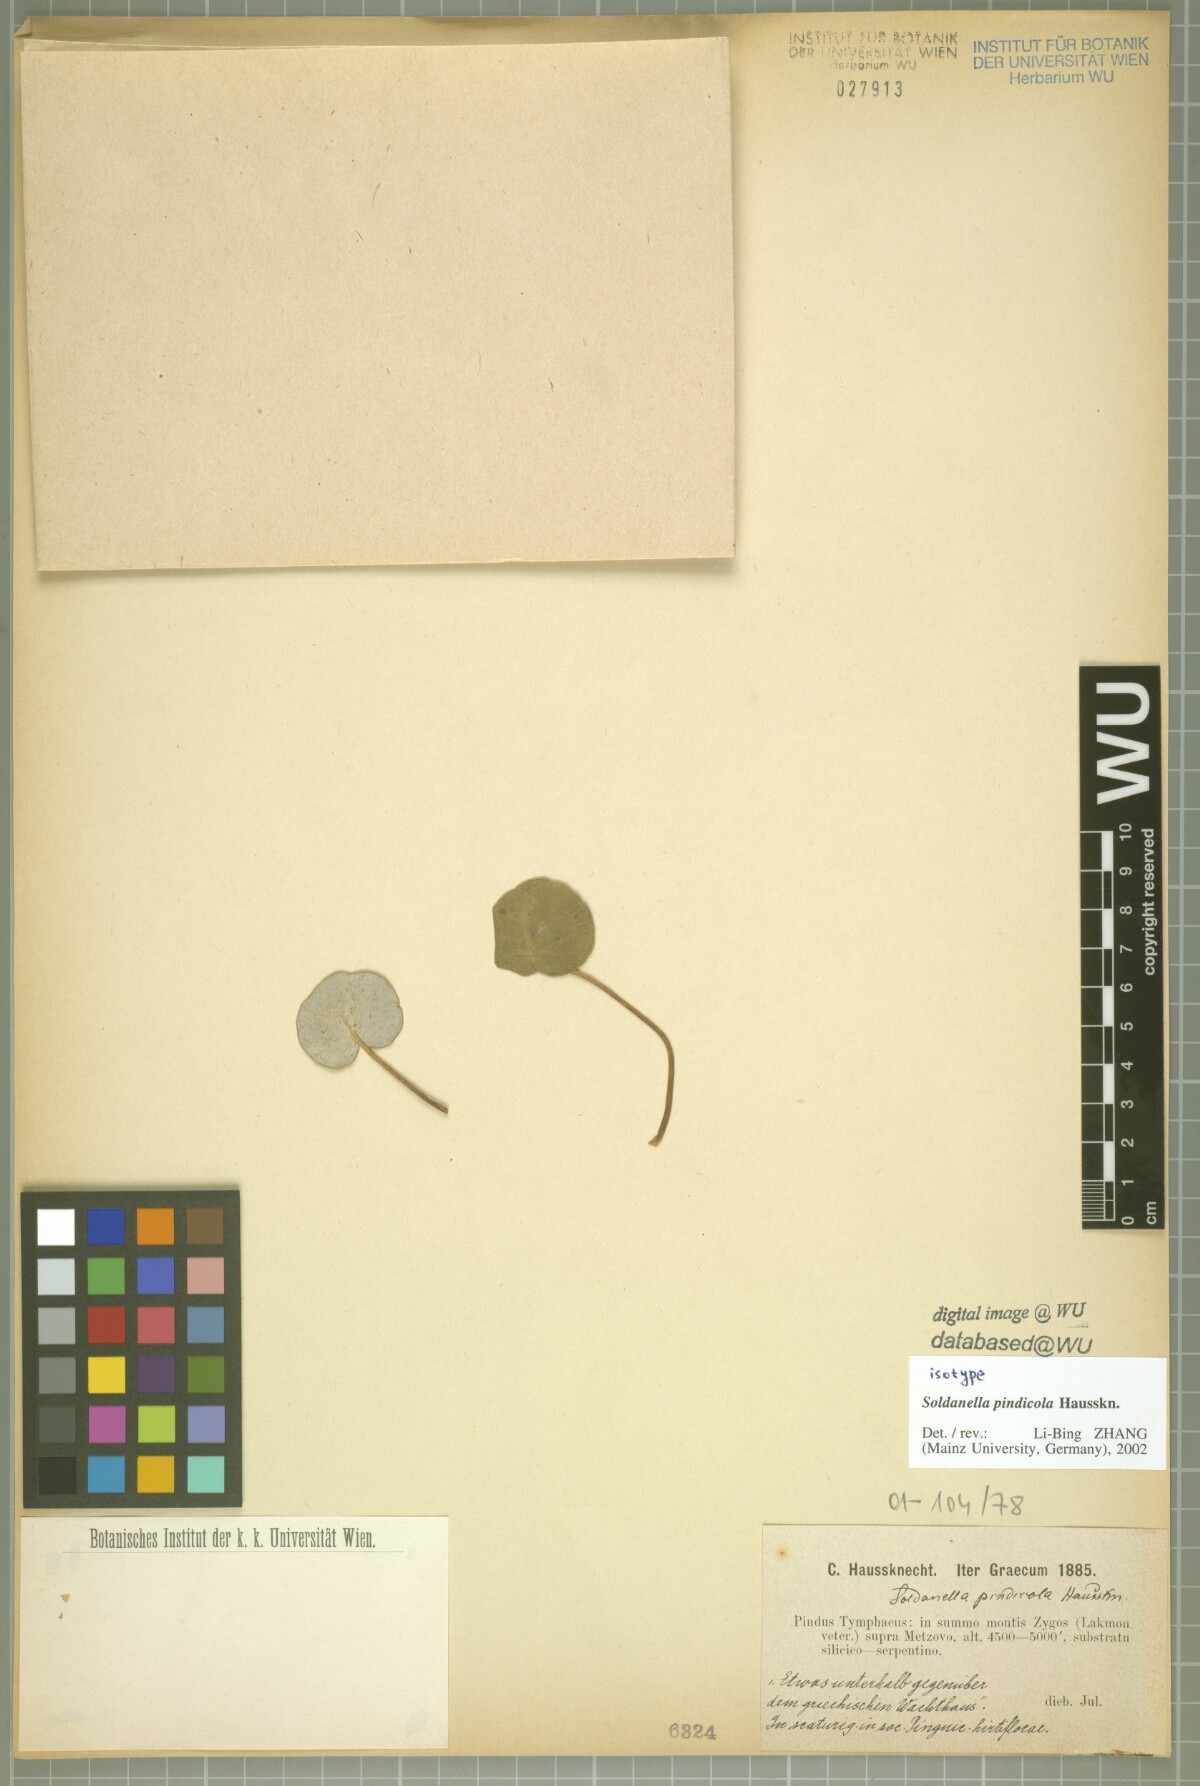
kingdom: Plantae
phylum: Tracheophyta
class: Magnoliopsida
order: Ericales
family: Primulaceae
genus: Soldanella
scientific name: Soldanella pindicola
